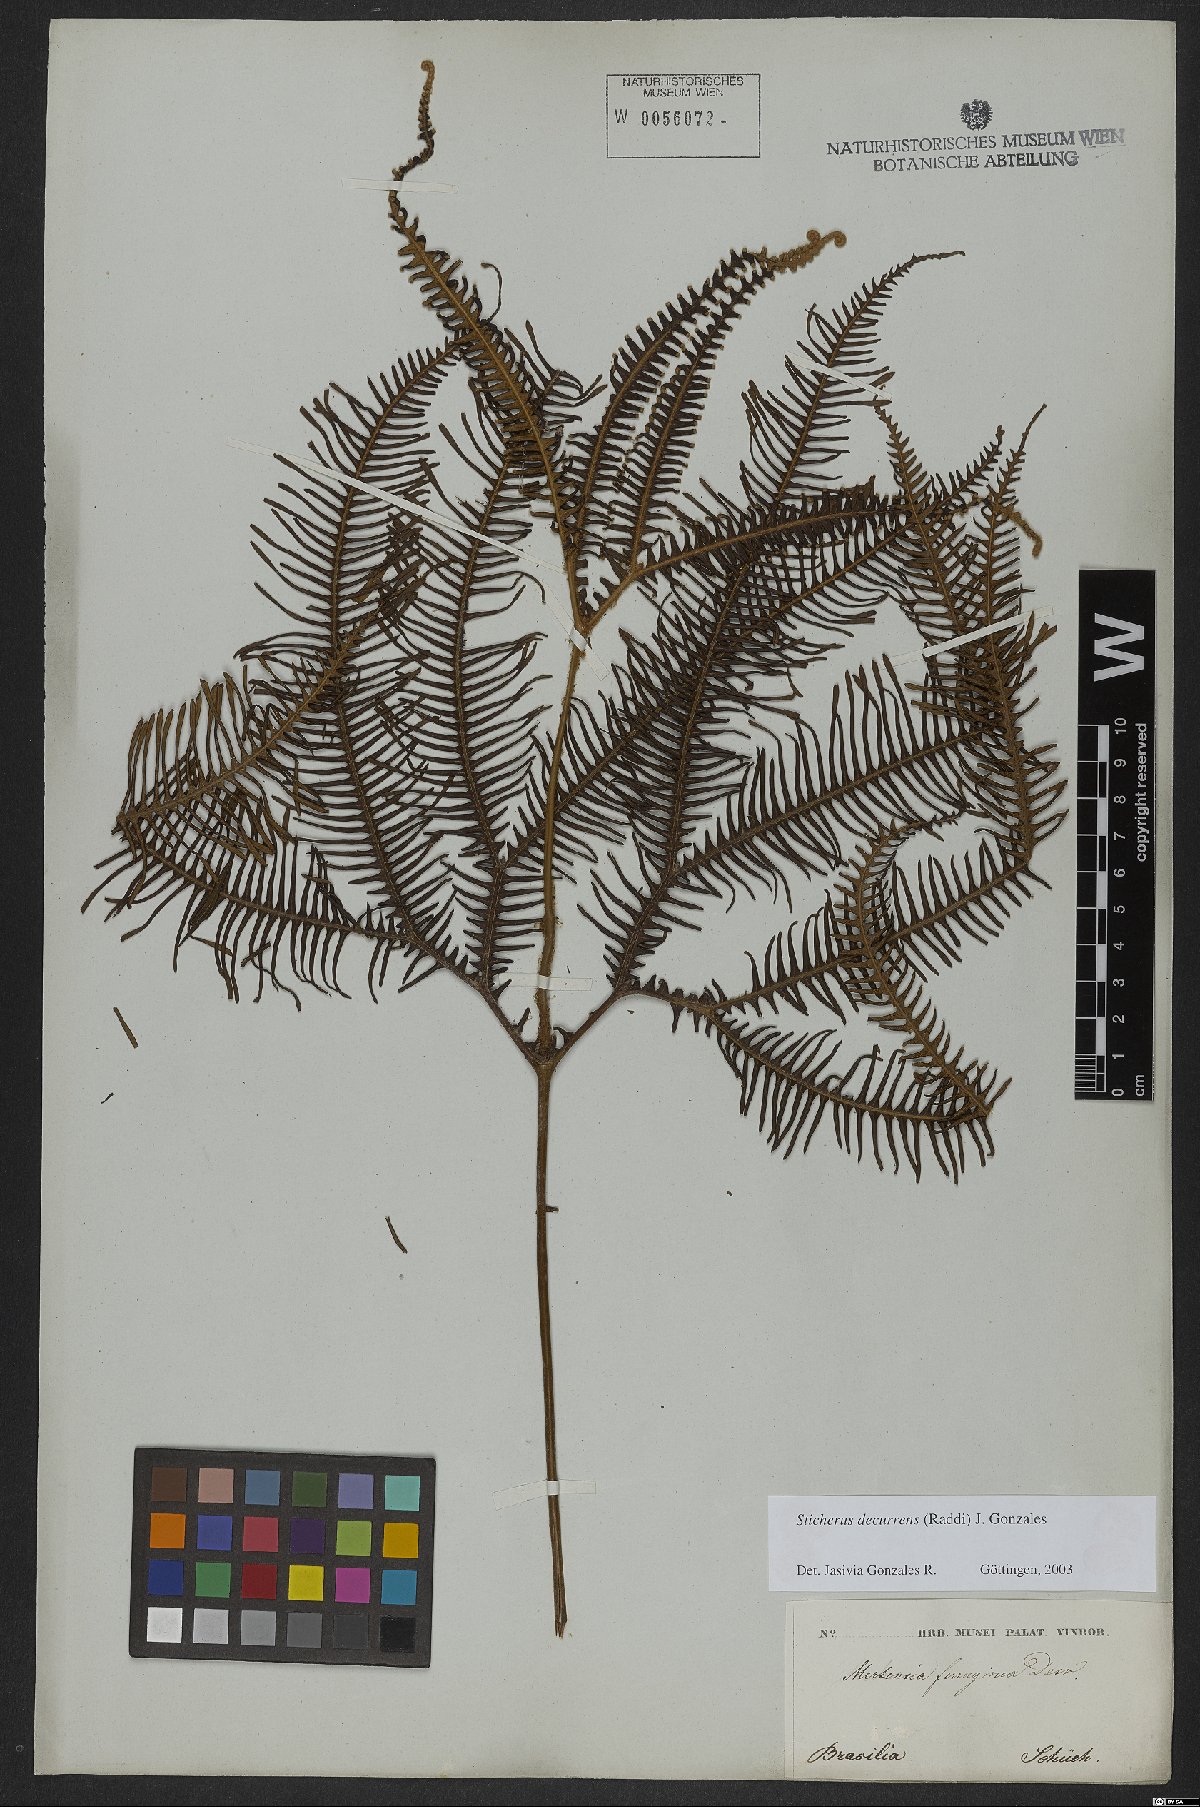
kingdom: Plantae
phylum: Tracheophyta
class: Polypodiopsida
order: Gleicheniales
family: Gleicheniaceae
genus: Sticherus
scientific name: Sticherus decurrens
